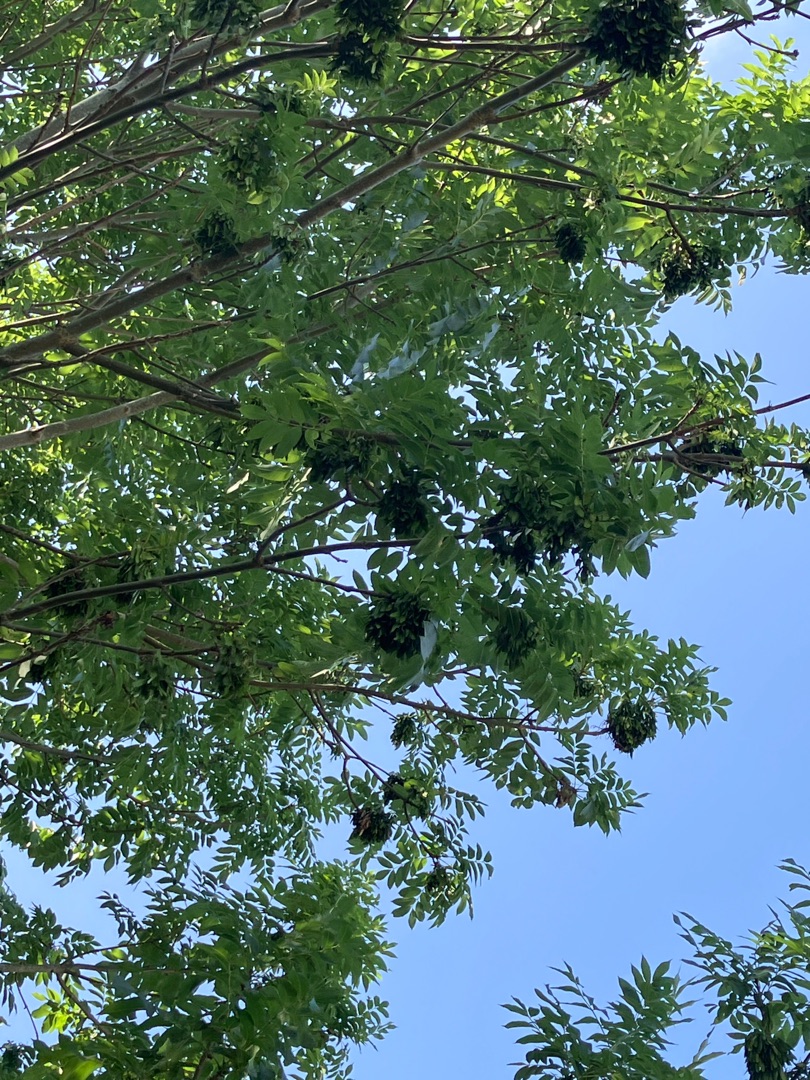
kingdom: Plantae
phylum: Tracheophyta
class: Magnoliopsida
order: Lamiales
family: Oleaceae
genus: Fraxinus
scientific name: Fraxinus excelsior
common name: Ask
